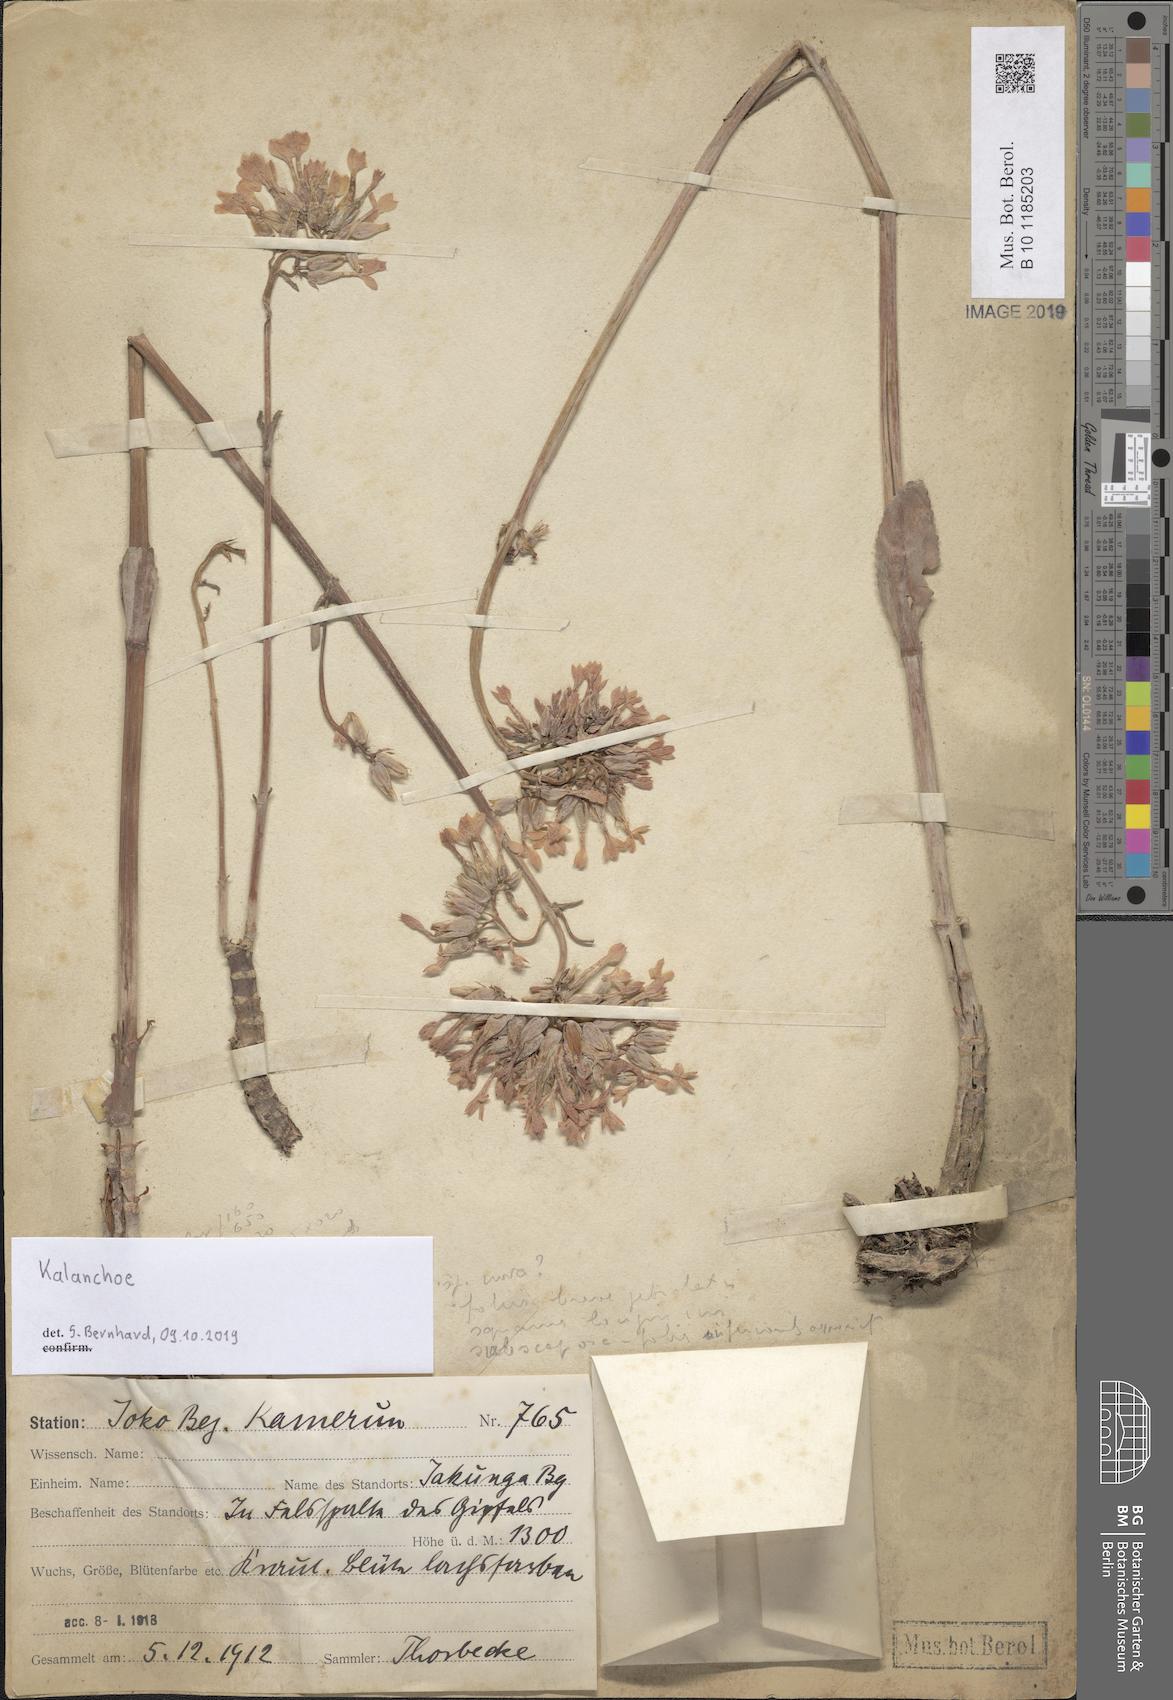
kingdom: Plantae
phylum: Tracheophyta
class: Magnoliopsida
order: Saxifragales
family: Crassulaceae
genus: Kalanchoe
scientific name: Kalanchoe
